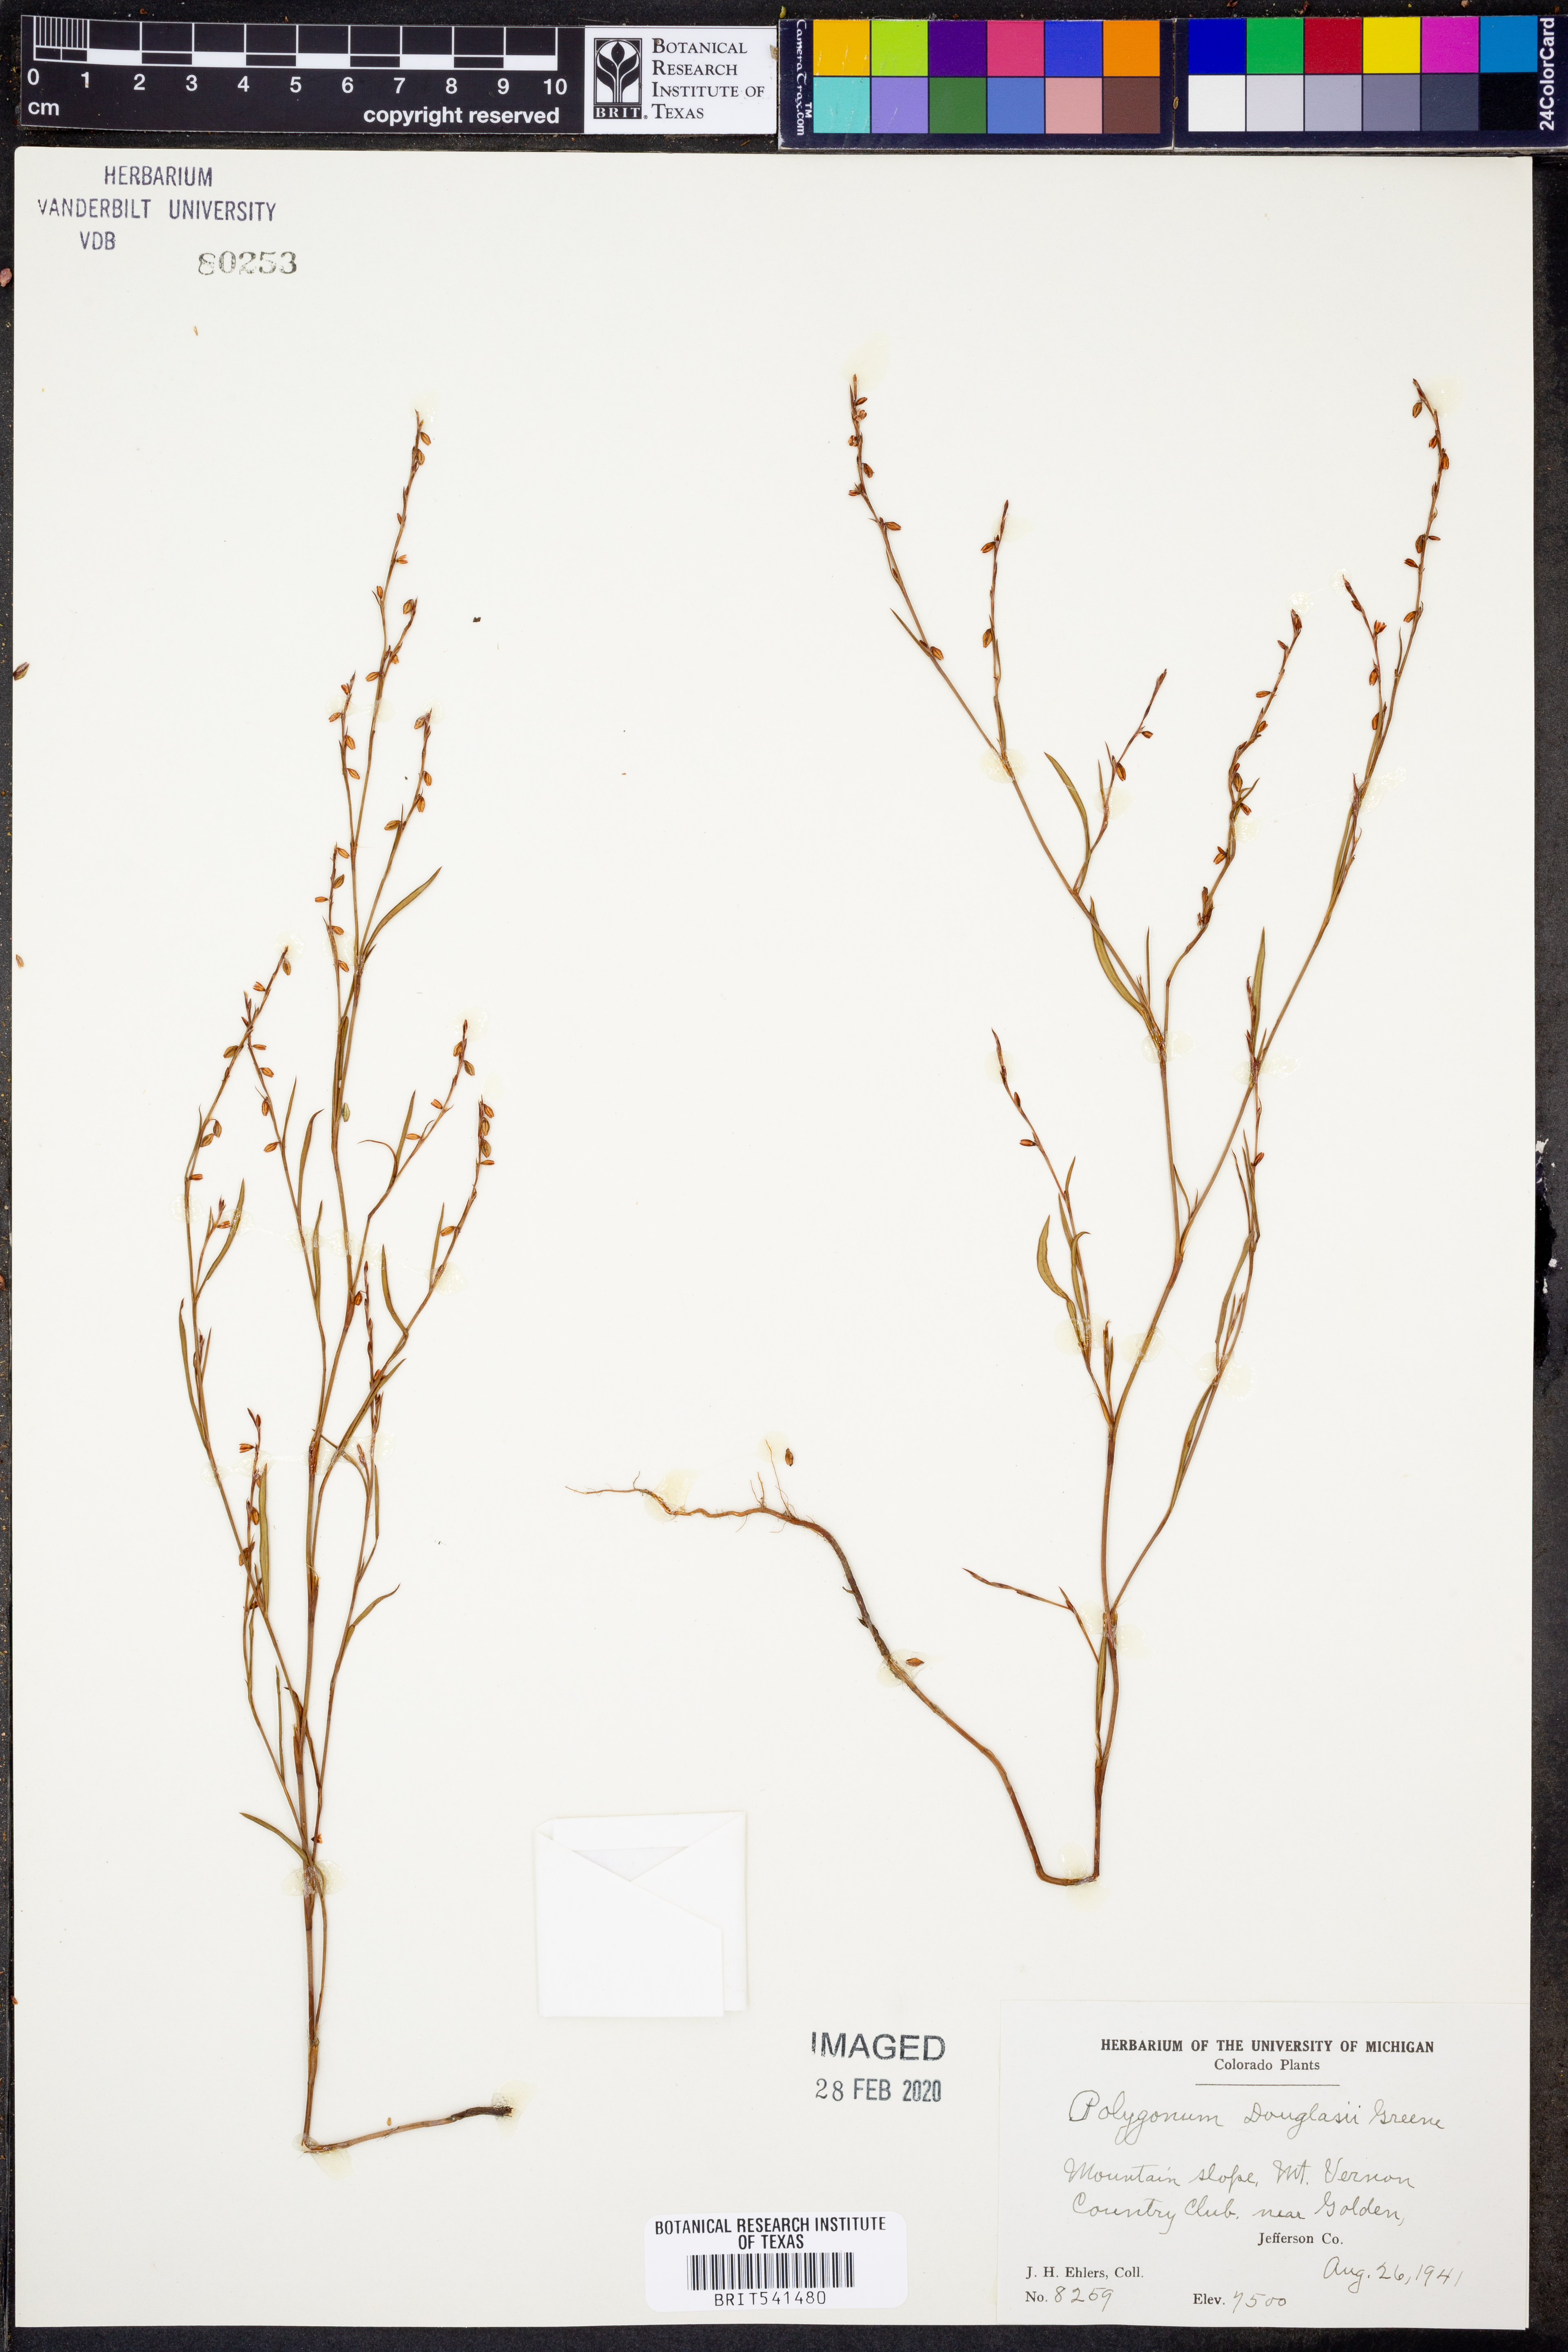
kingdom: Plantae
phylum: Tracheophyta
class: Magnoliopsida
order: Caryophyllales
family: Polygonaceae
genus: Polygonum
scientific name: Polygonum douglasii
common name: Douglas' knotweed
